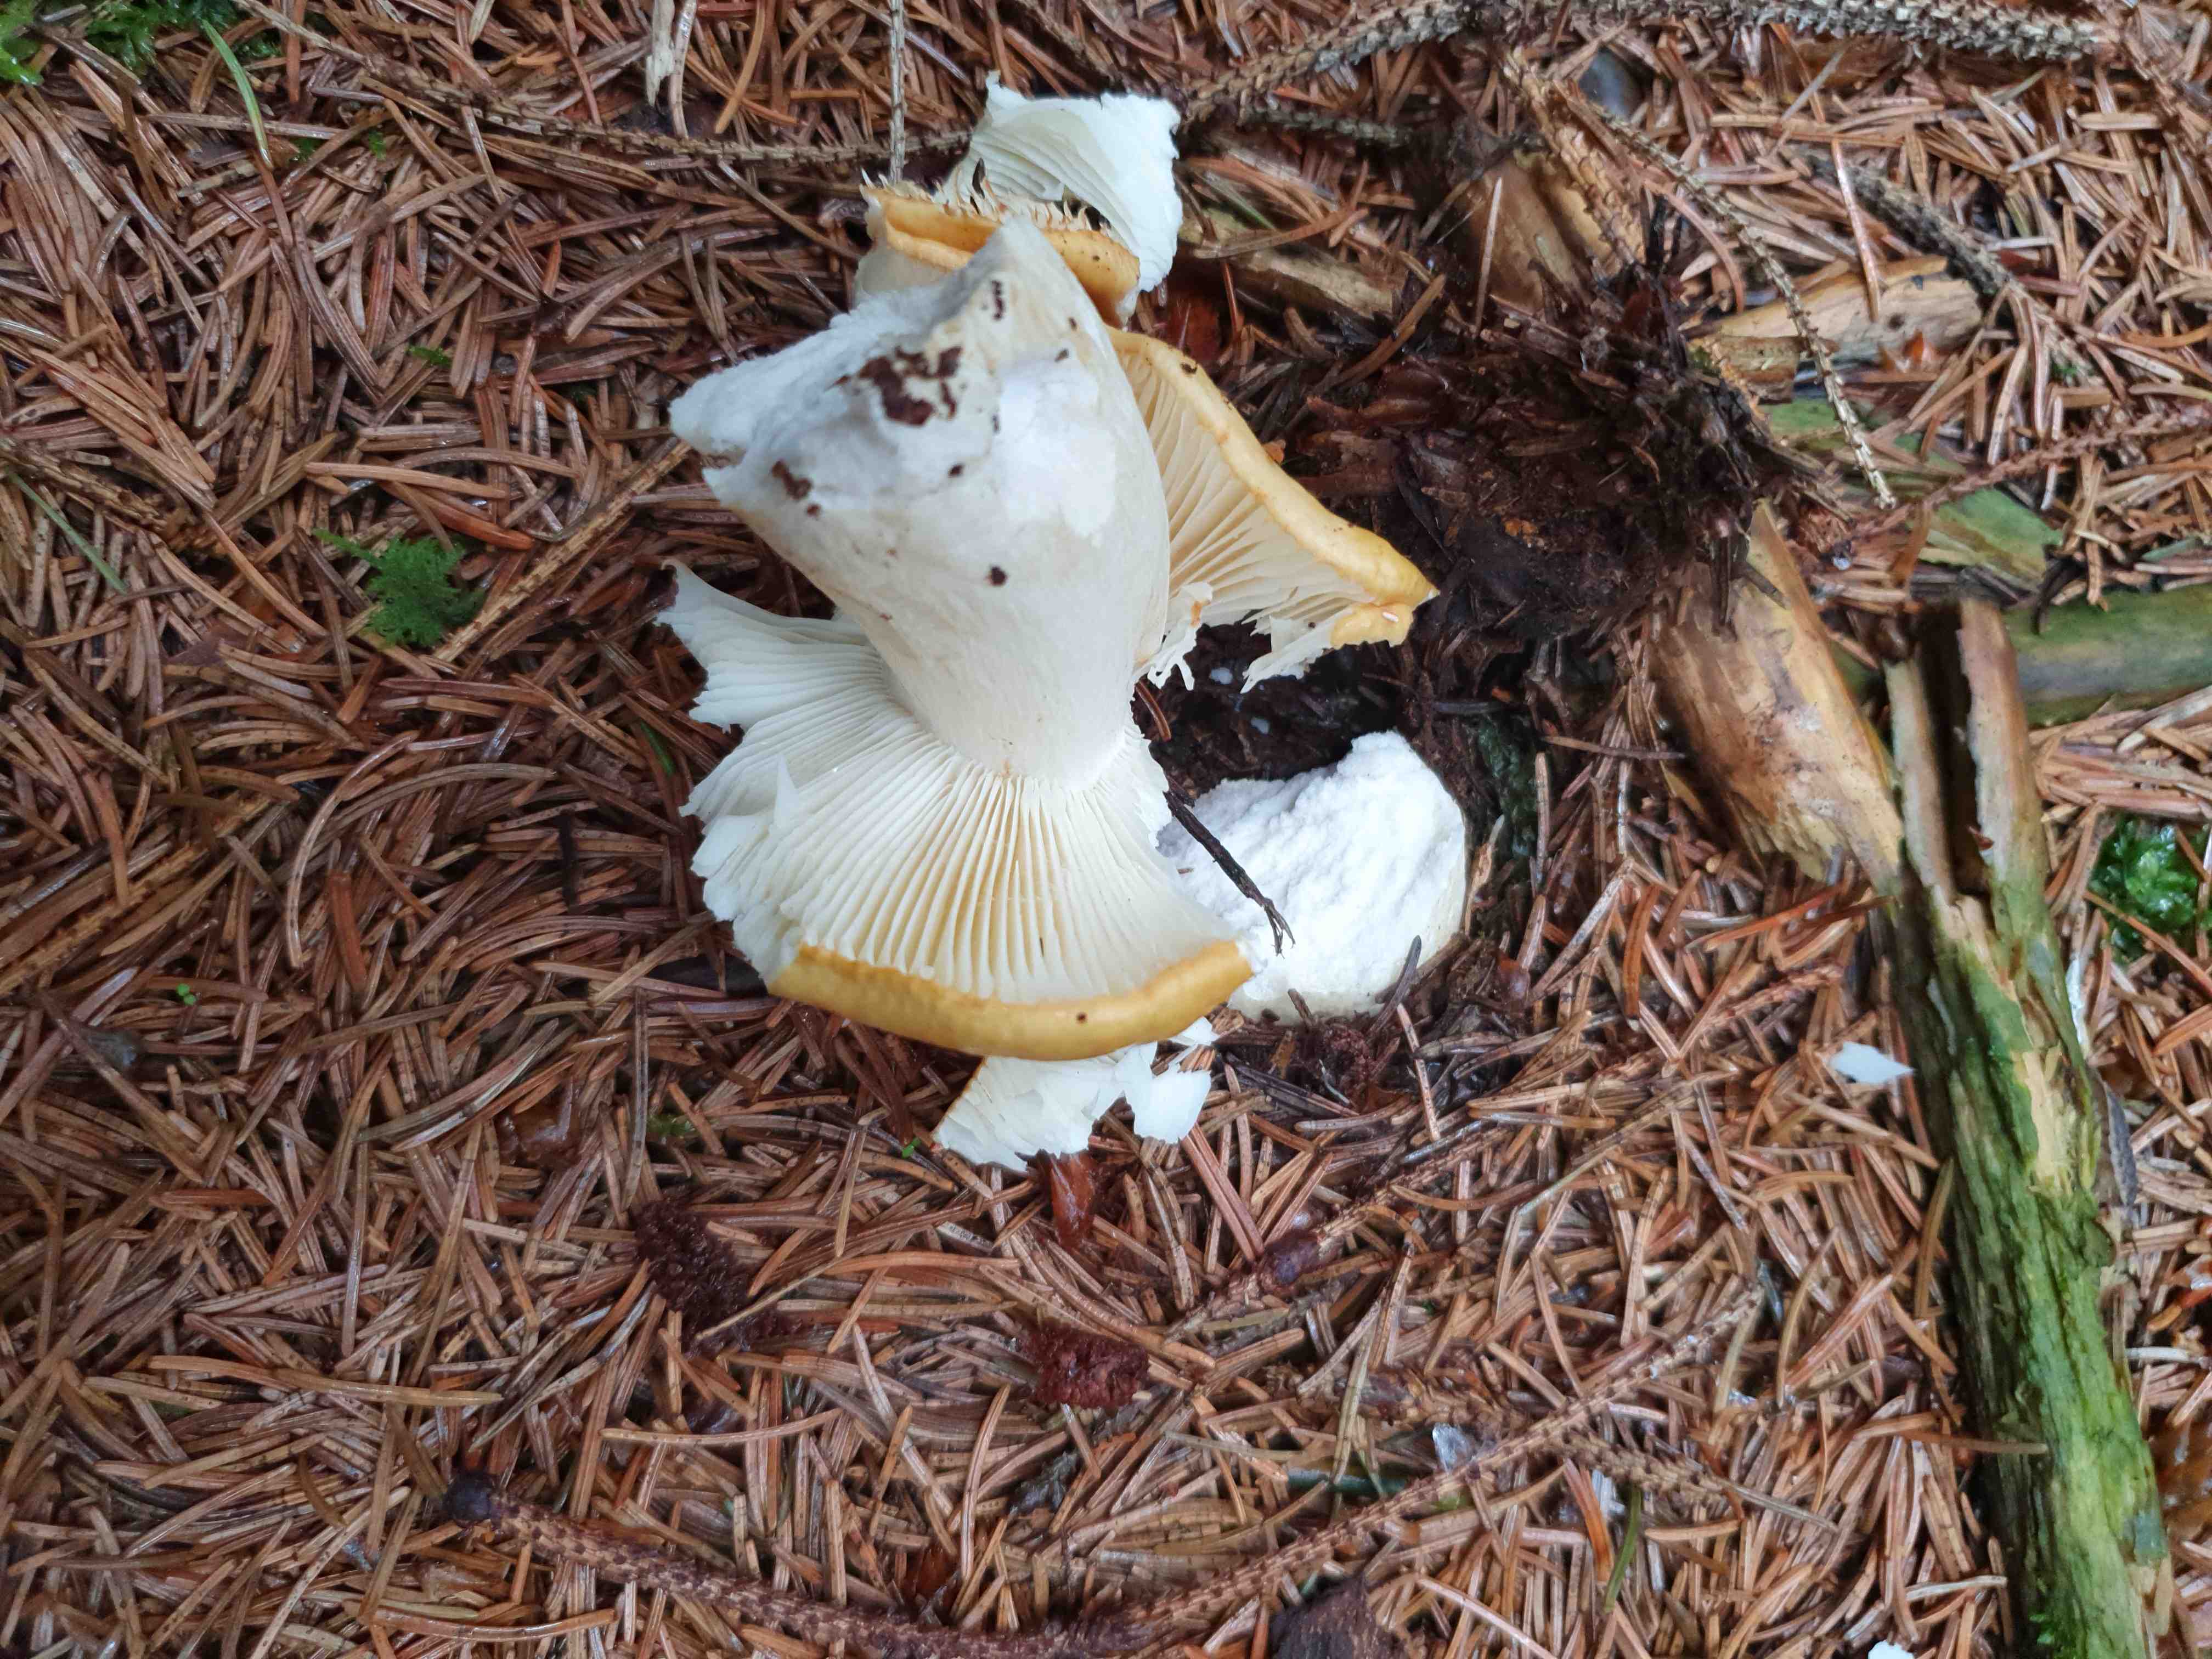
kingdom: Fungi
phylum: Basidiomycota
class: Agaricomycetes
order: Russulales
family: Russulaceae
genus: Russula
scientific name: Russula ochroleuca
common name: okkergul skørhat
